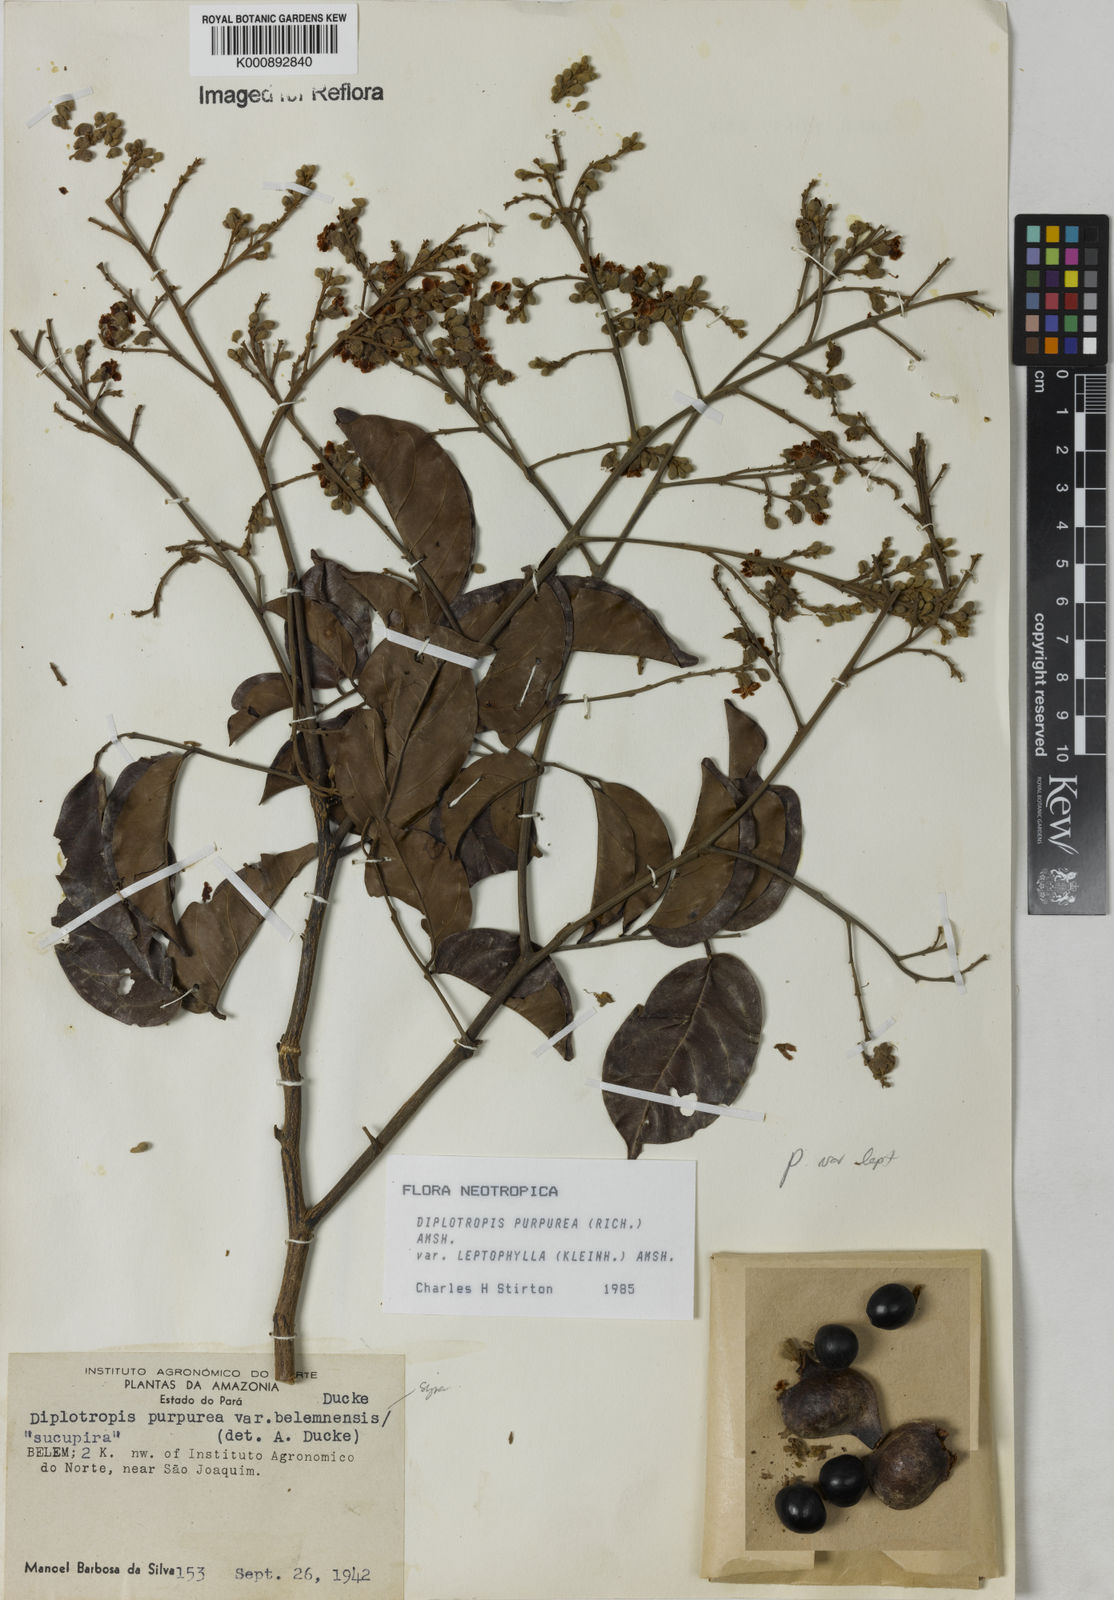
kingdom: Plantae
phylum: Tracheophyta
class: Magnoliopsida
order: Fabales
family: Fabaceae
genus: Diplotropis
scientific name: Diplotropis purpurea
